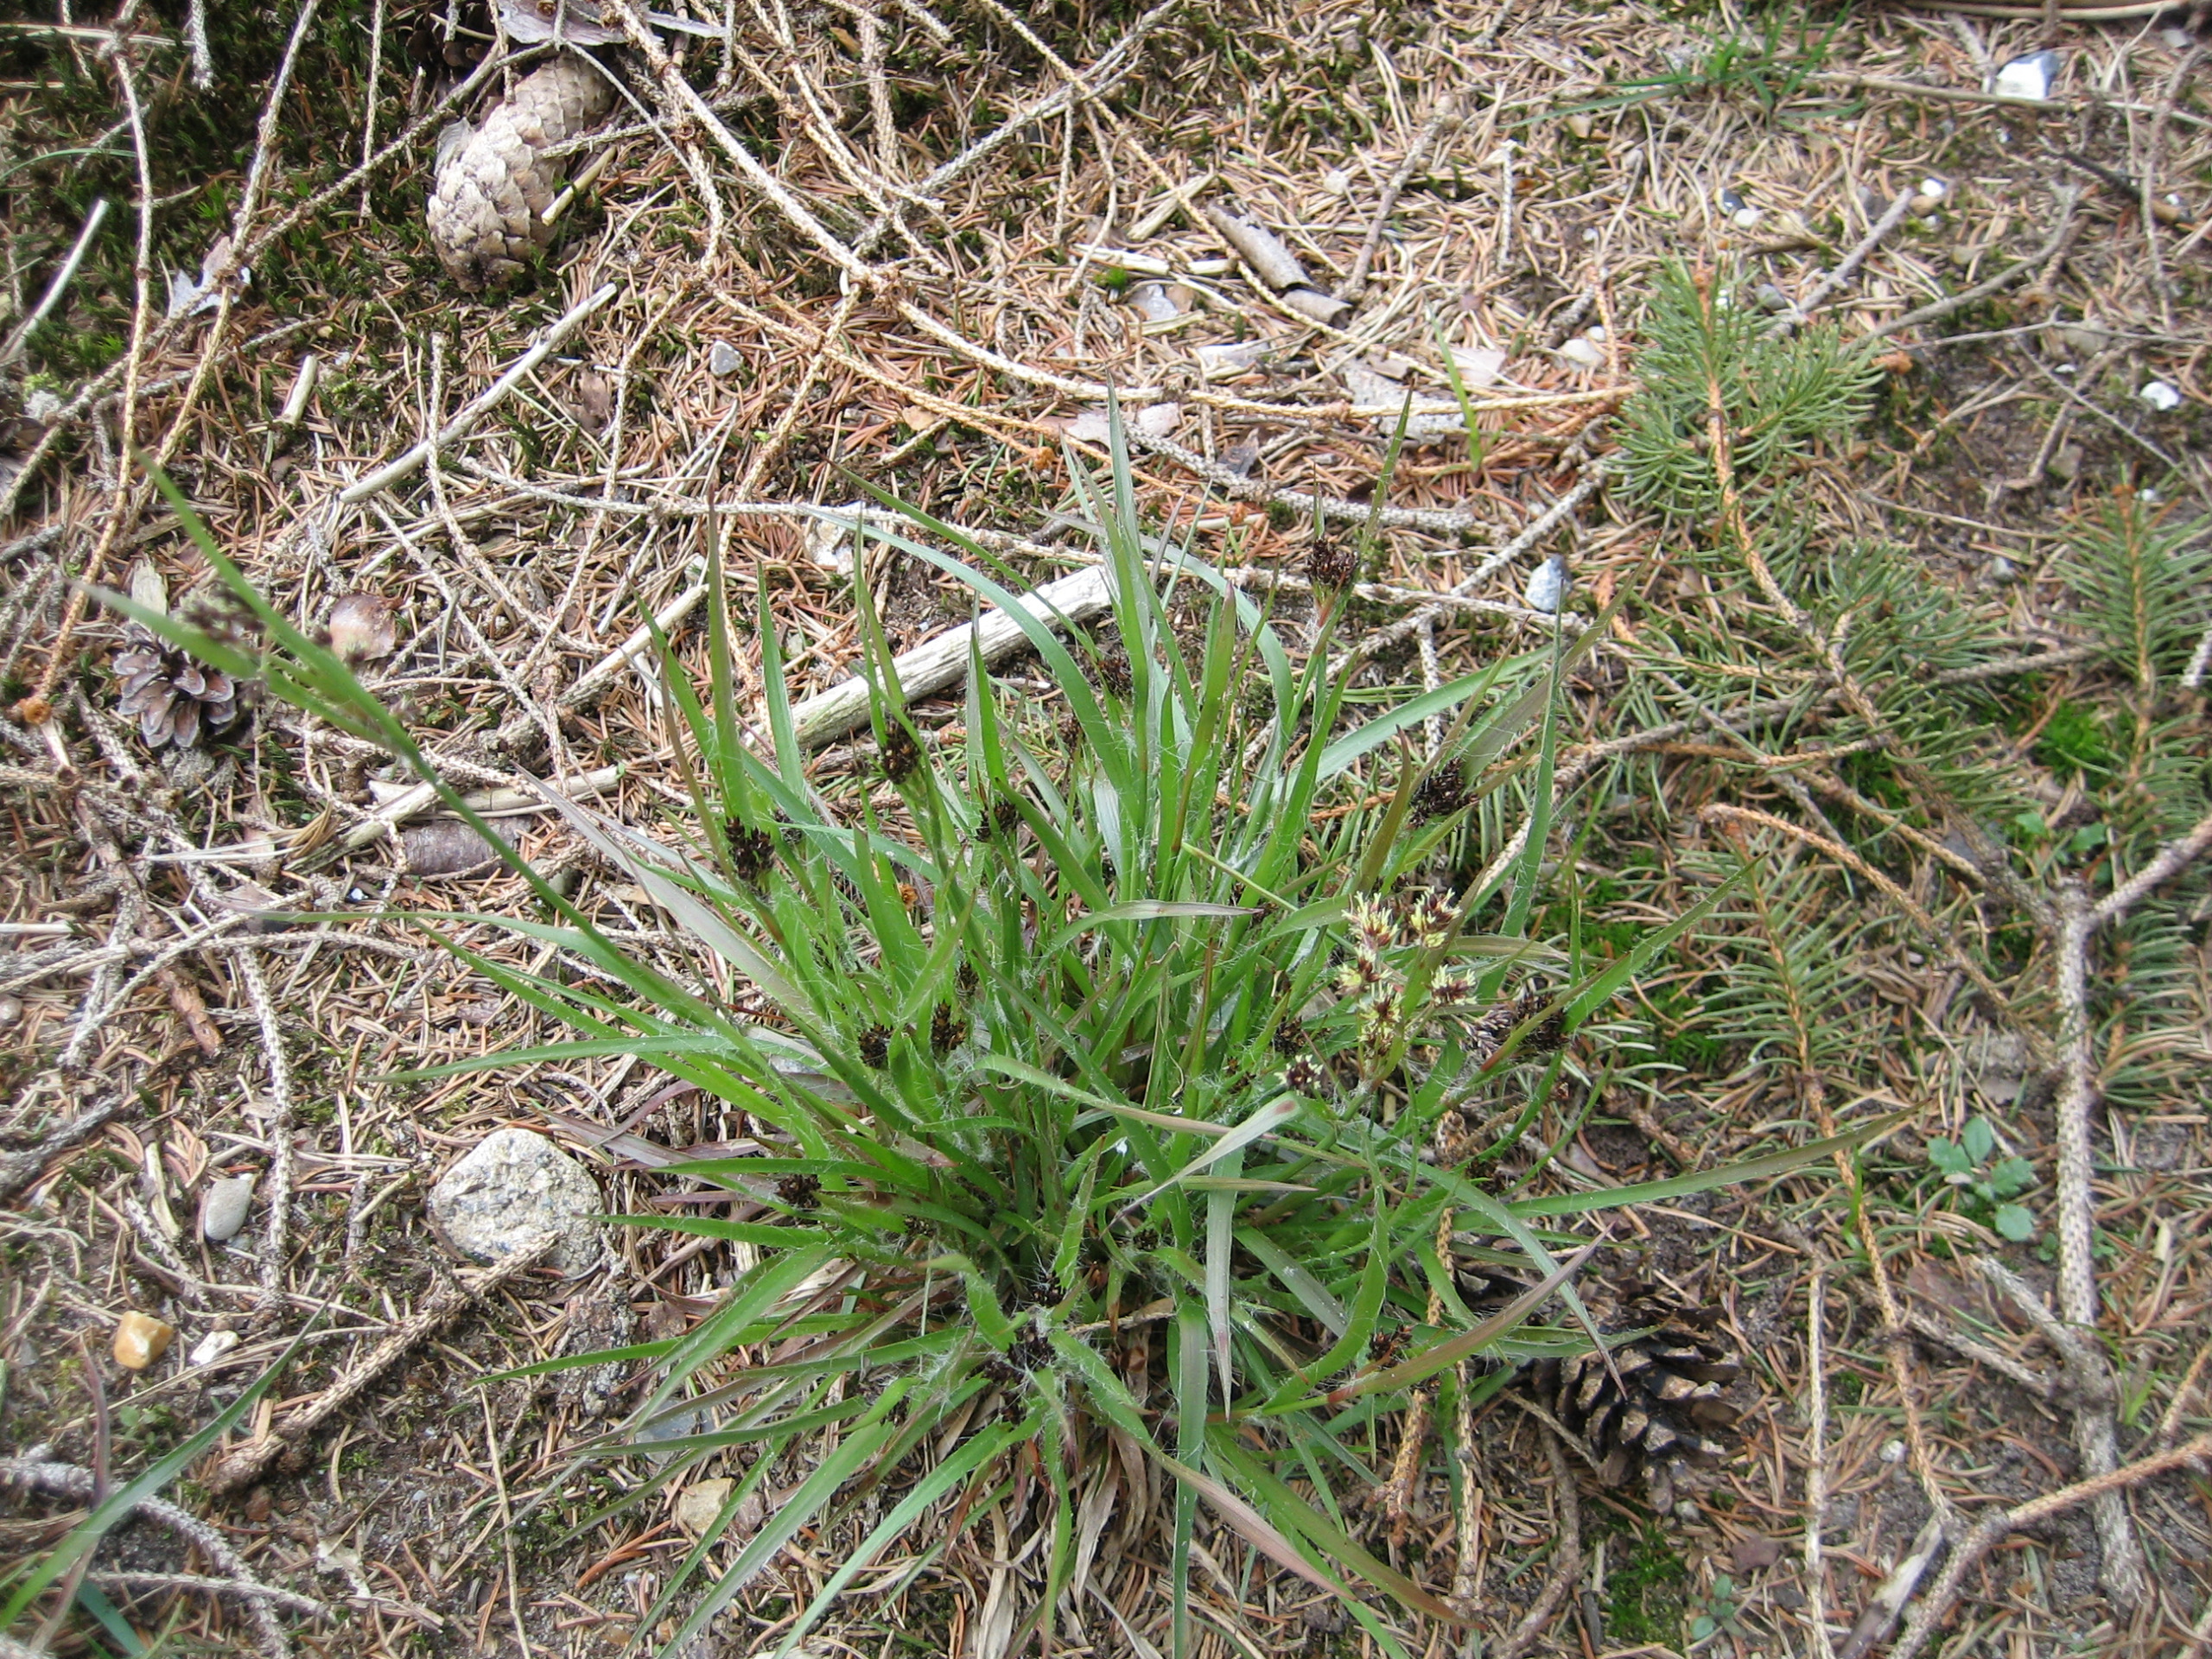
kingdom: Plantae
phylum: Tracheophyta
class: Liliopsida
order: Poales
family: Juncaceae
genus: Luzula
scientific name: Luzula multiflora
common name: Mangeblomstret frytle
